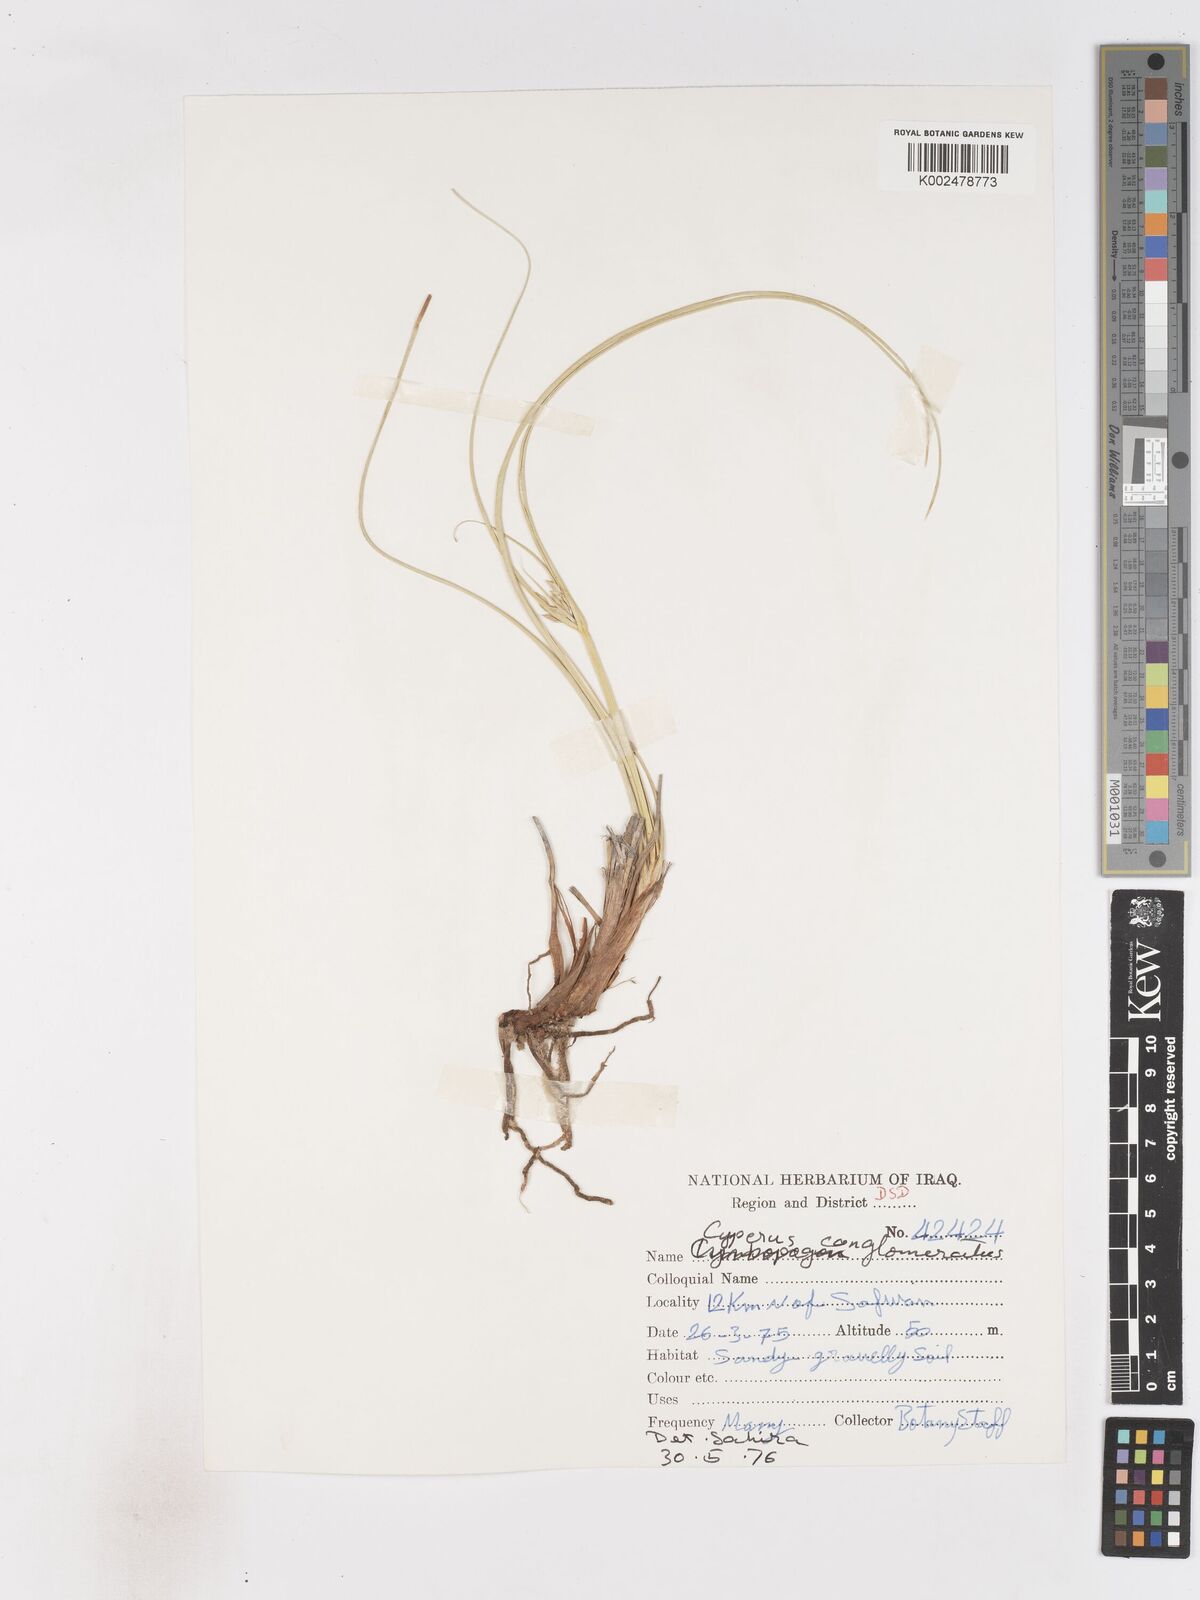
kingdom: Plantae
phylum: Tracheophyta
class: Liliopsida
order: Poales
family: Cyperaceae
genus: Cyperus
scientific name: Cyperus aucheri
